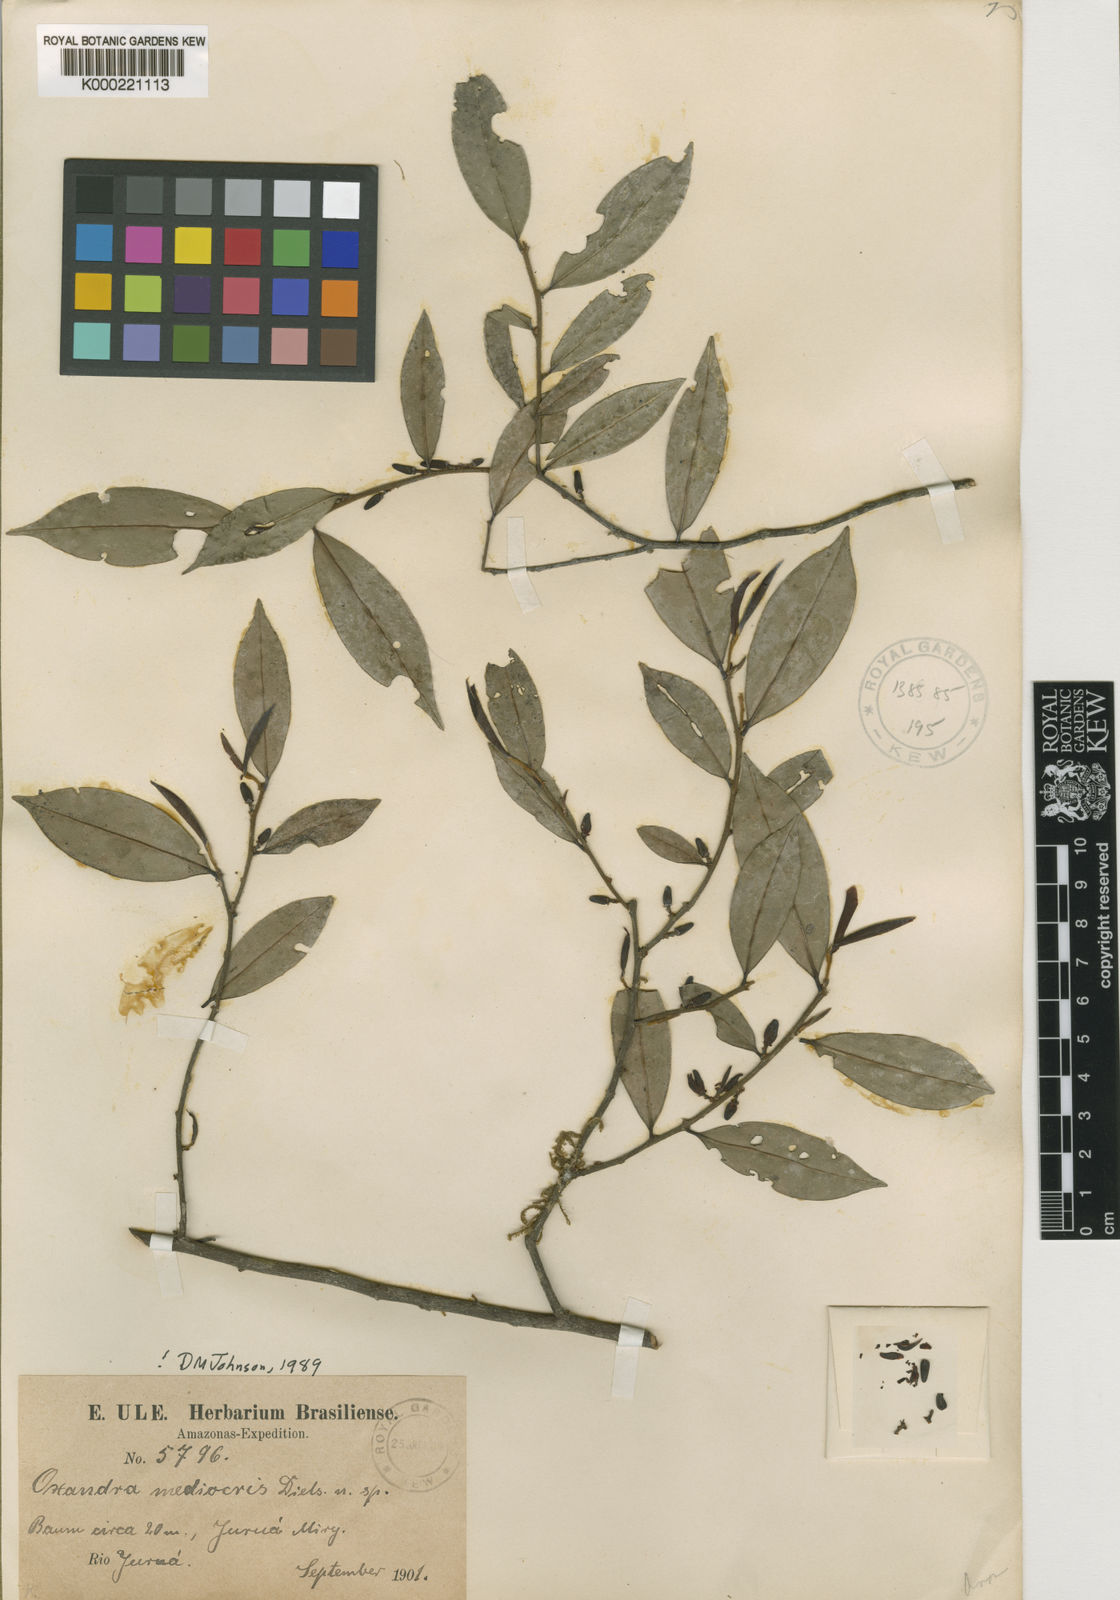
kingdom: Plantae
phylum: Tracheophyta
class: Magnoliopsida
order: Magnoliales
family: Annonaceae
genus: Oxandra
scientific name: Oxandra mediocris
